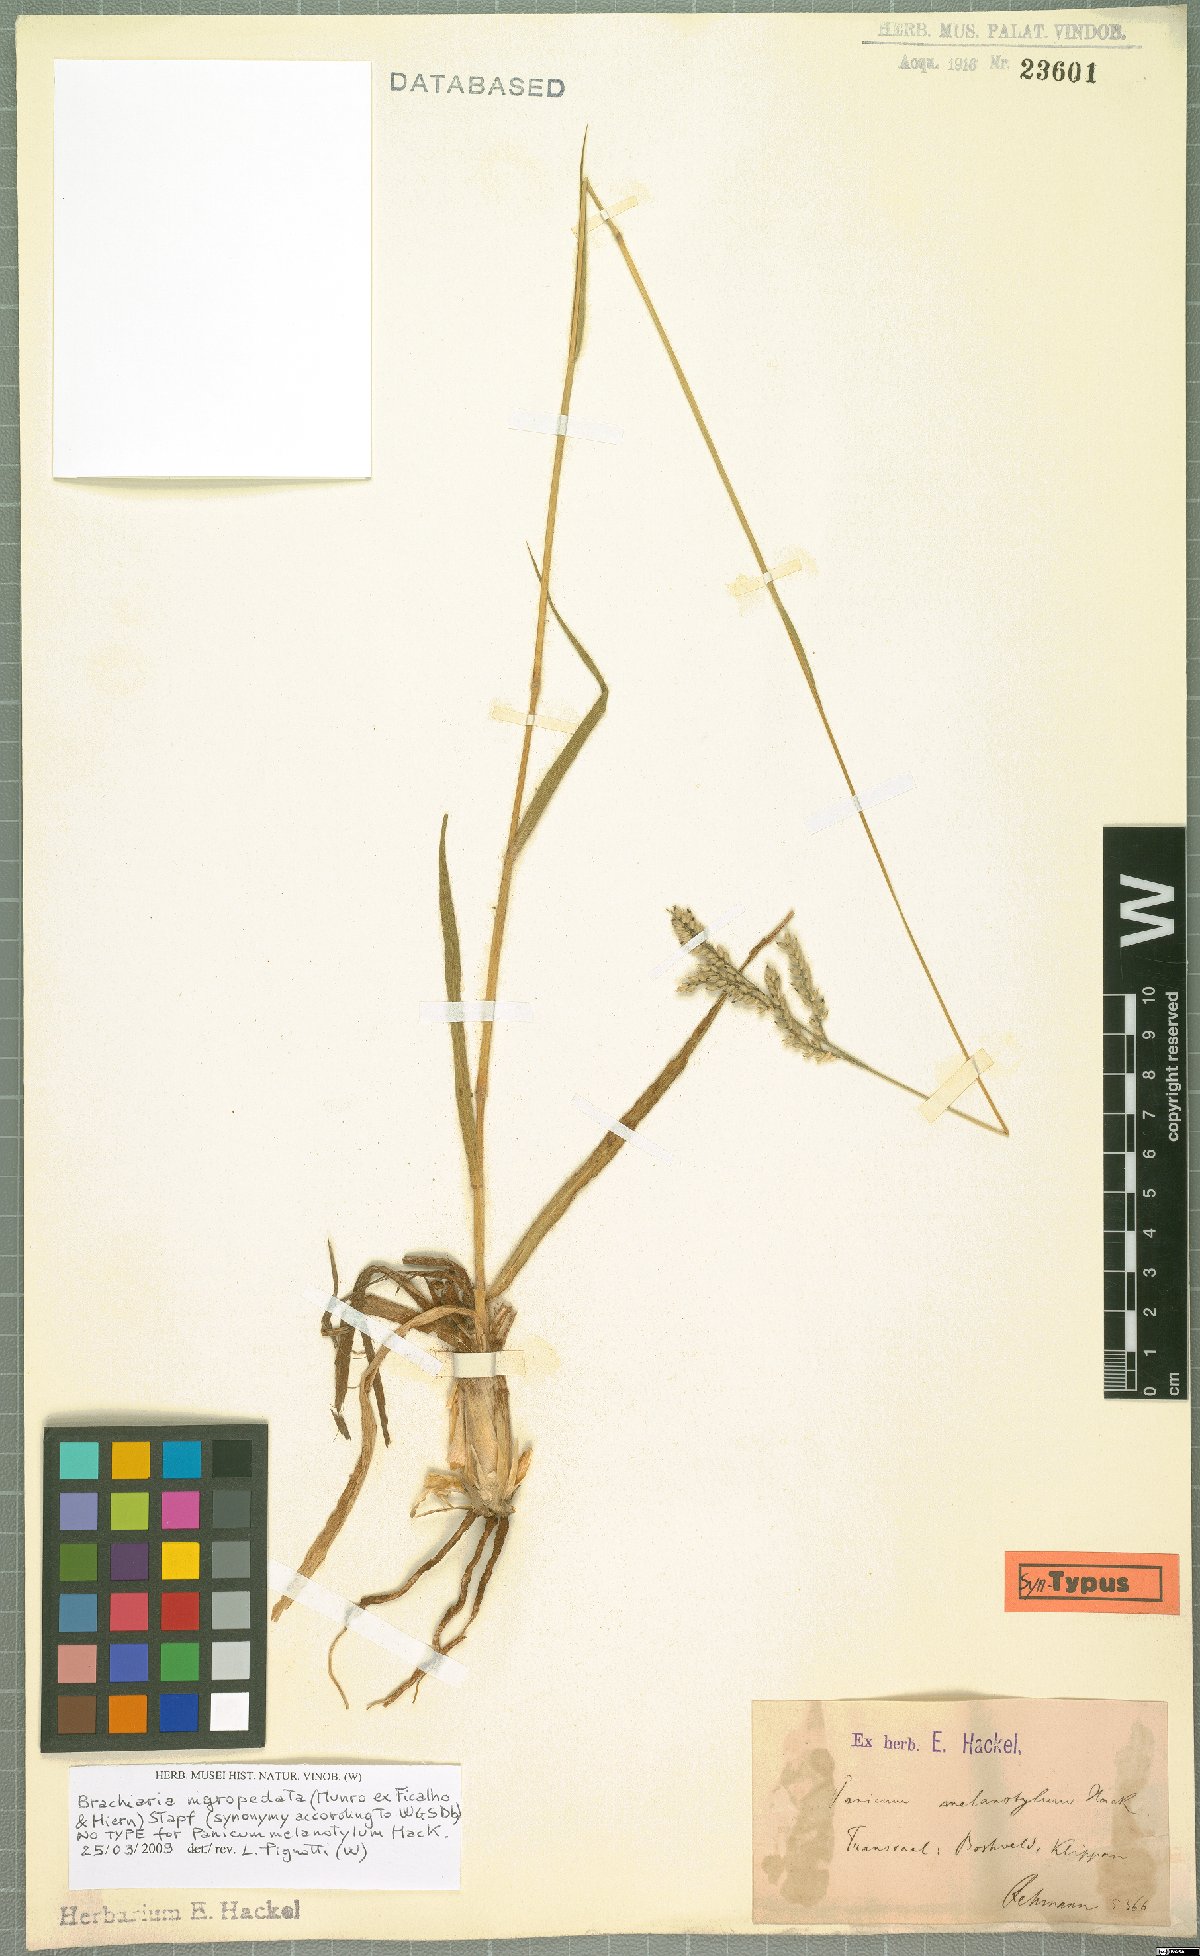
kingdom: Plantae
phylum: Tracheophyta
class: Liliopsida
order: Poales
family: Poaceae
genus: Urochloa
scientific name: Urochloa nigropedata
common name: Spotted signal grass
